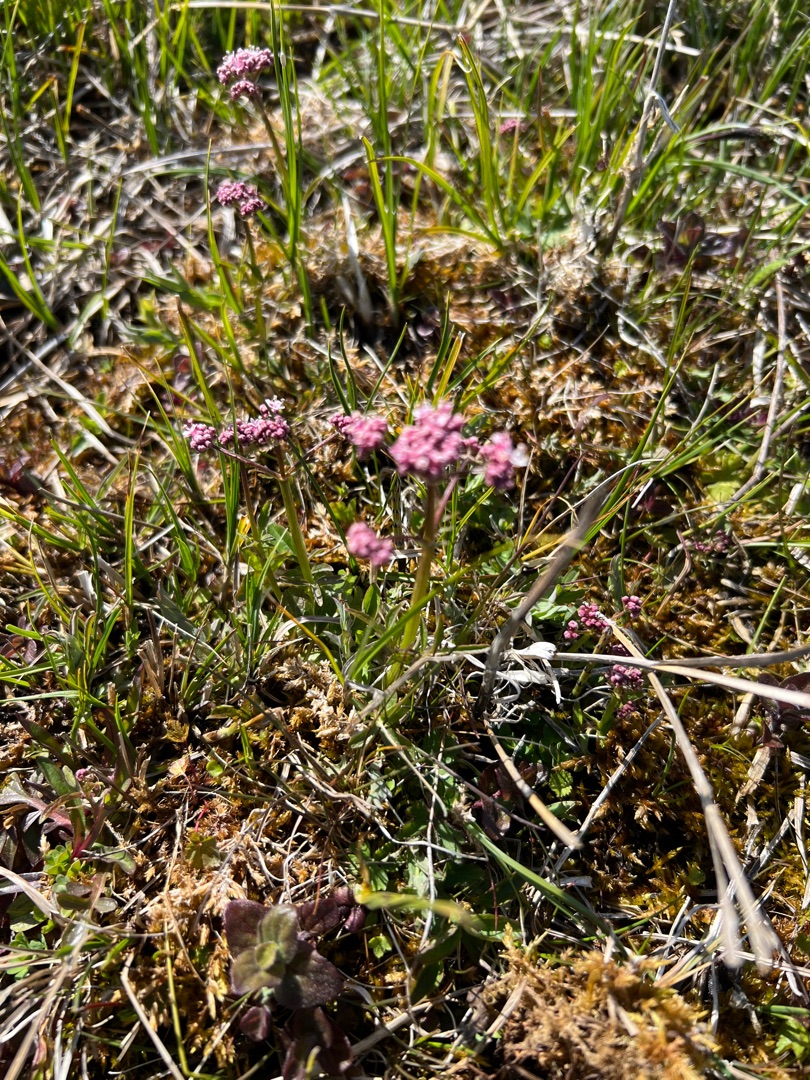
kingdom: Plantae
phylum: Tracheophyta
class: Magnoliopsida
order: Dipsacales
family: Caprifoliaceae
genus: Valeriana
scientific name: Valeriana dioica
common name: Tvebo baldrian
